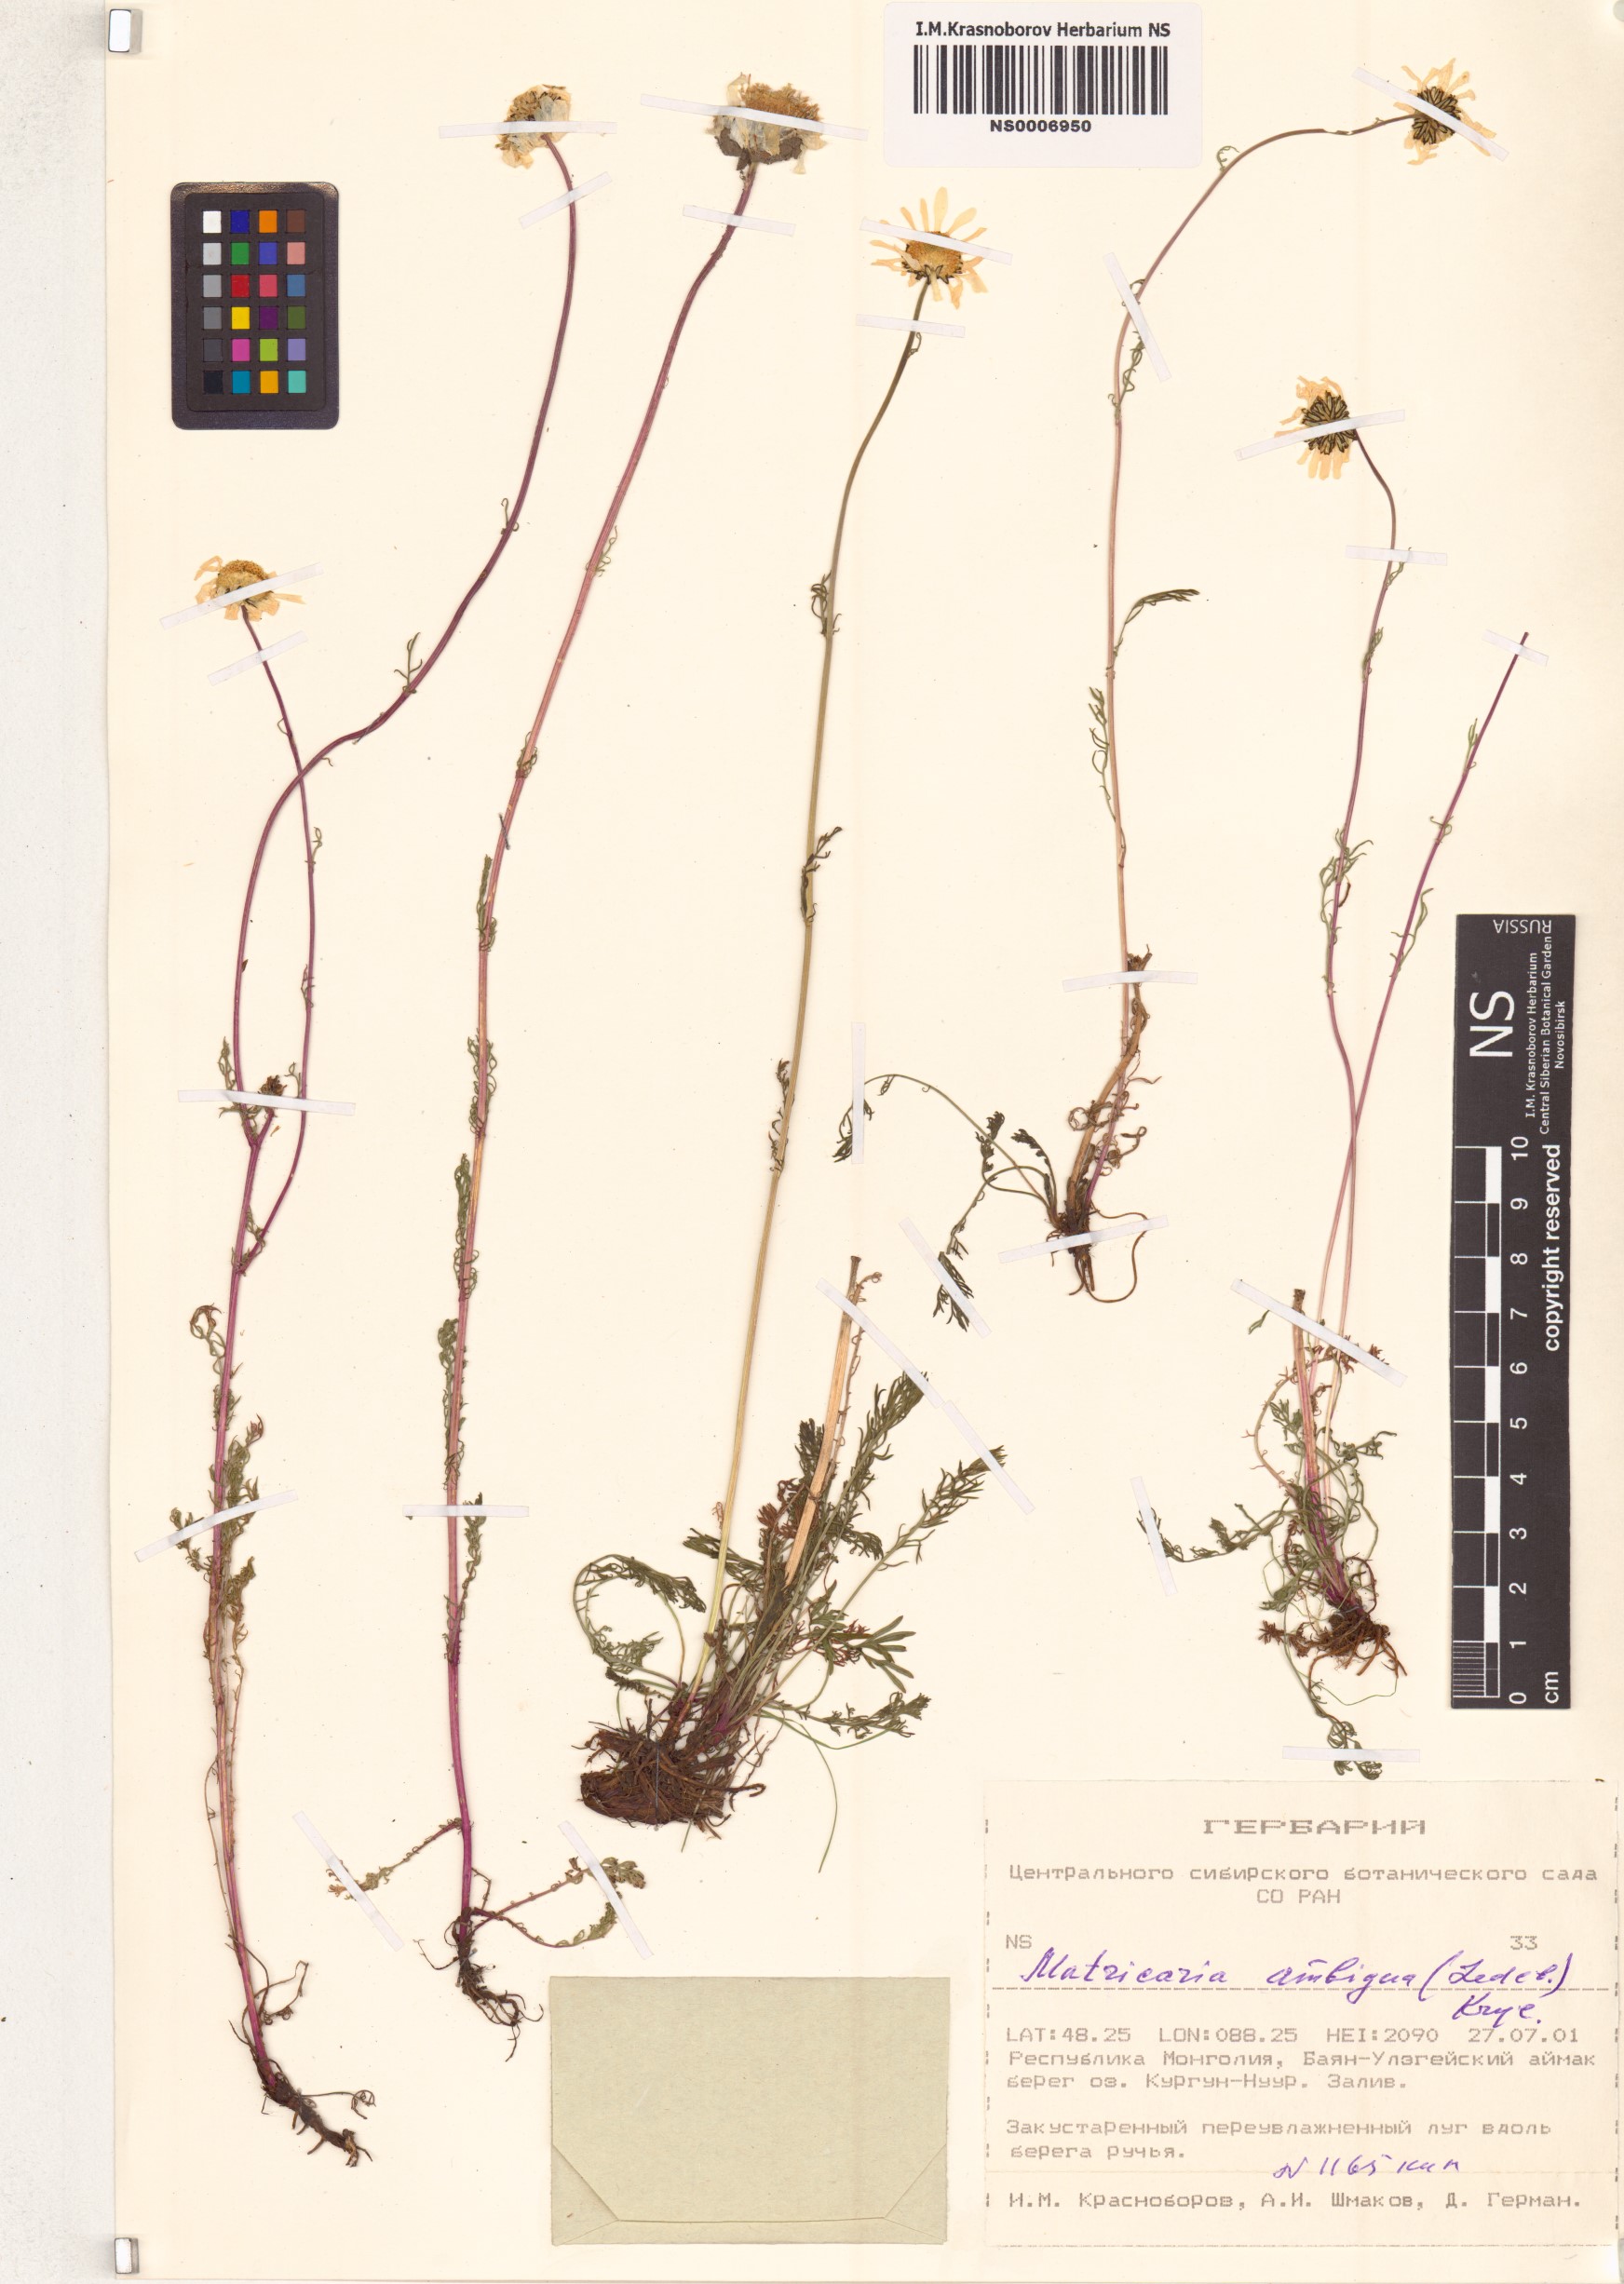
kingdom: Plantae
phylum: Tracheophyta
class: Magnoliopsida
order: Asterales
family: Asteraceae
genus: Tripleurospermum
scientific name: Tripleurospermum ambiguum
